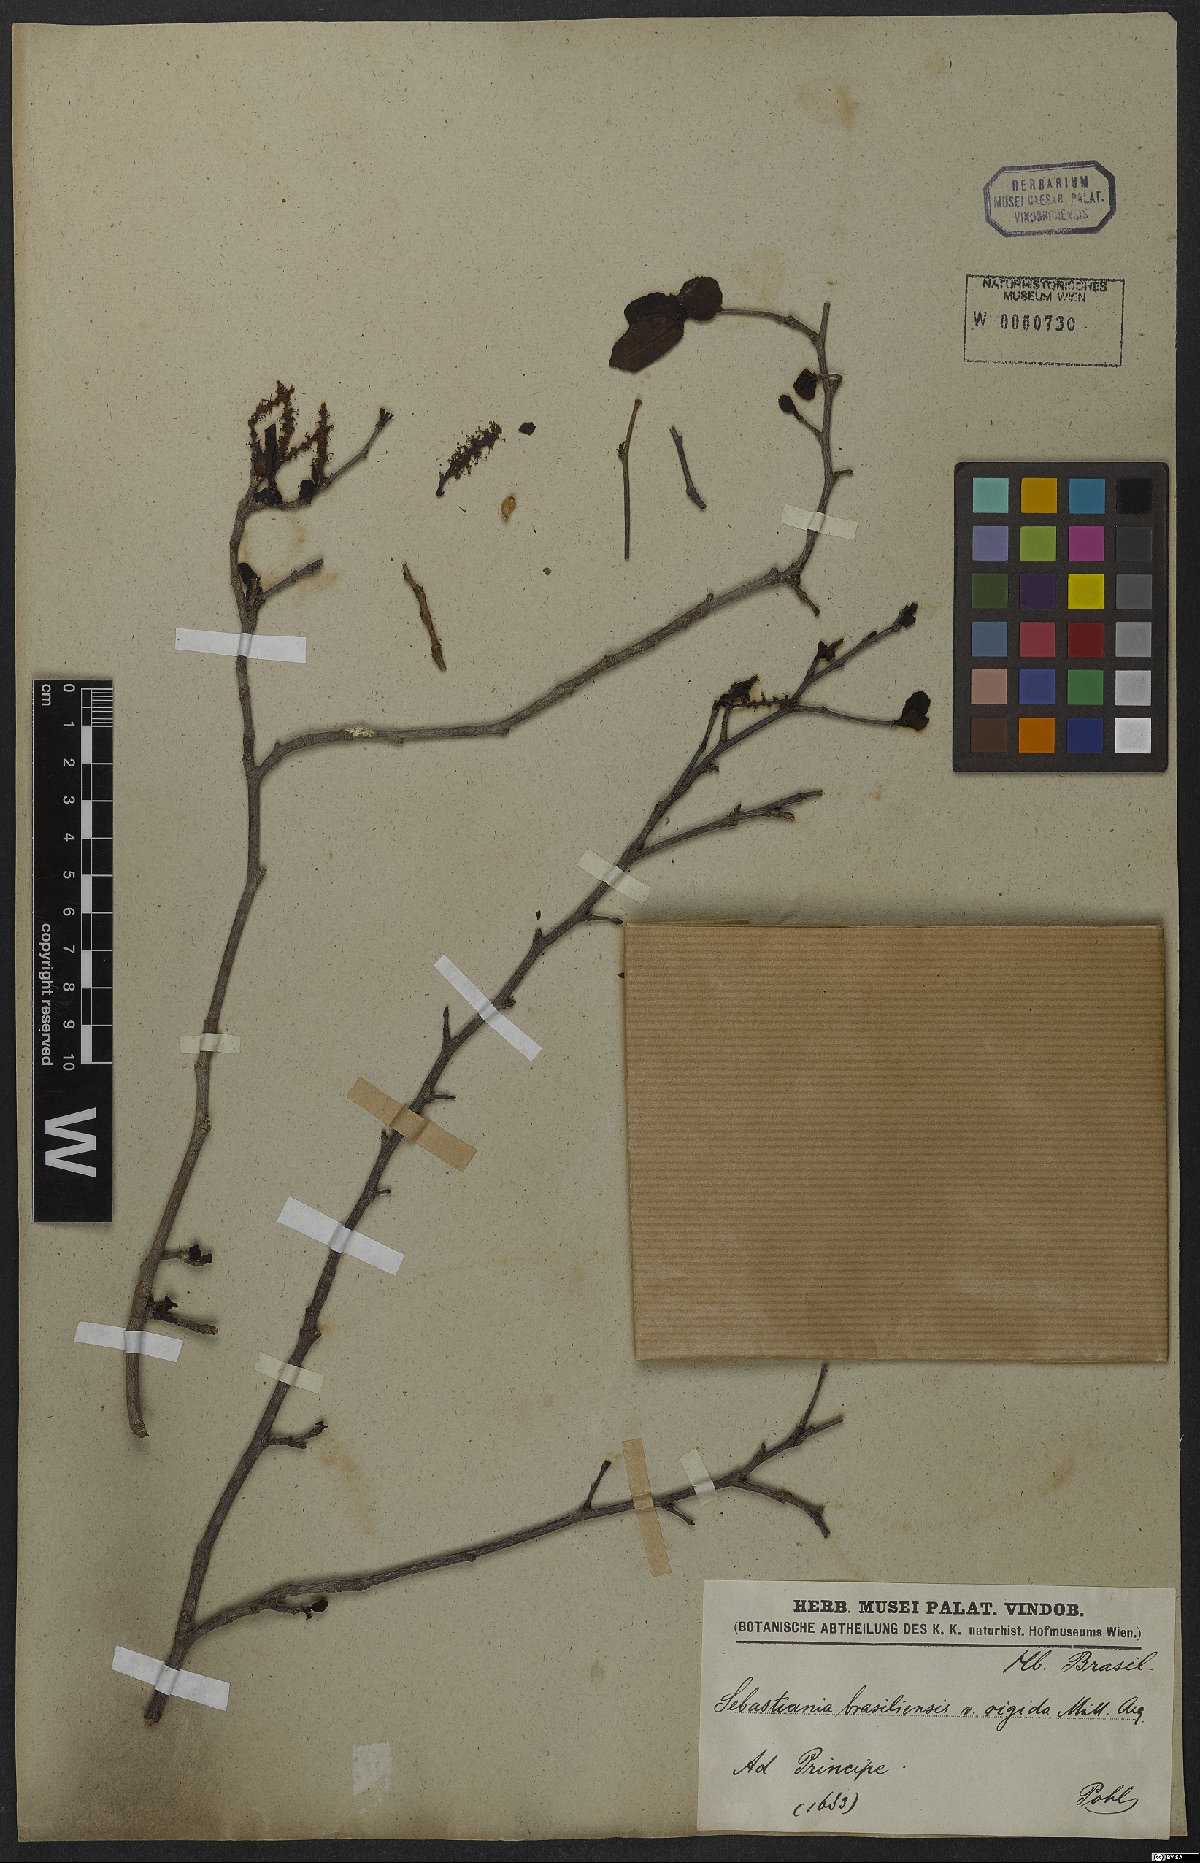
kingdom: Plantae
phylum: Tracheophyta
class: Magnoliopsida
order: Malpighiales
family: Euphorbiaceae
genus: Sebastiania
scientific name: Sebastiania ramosissima
